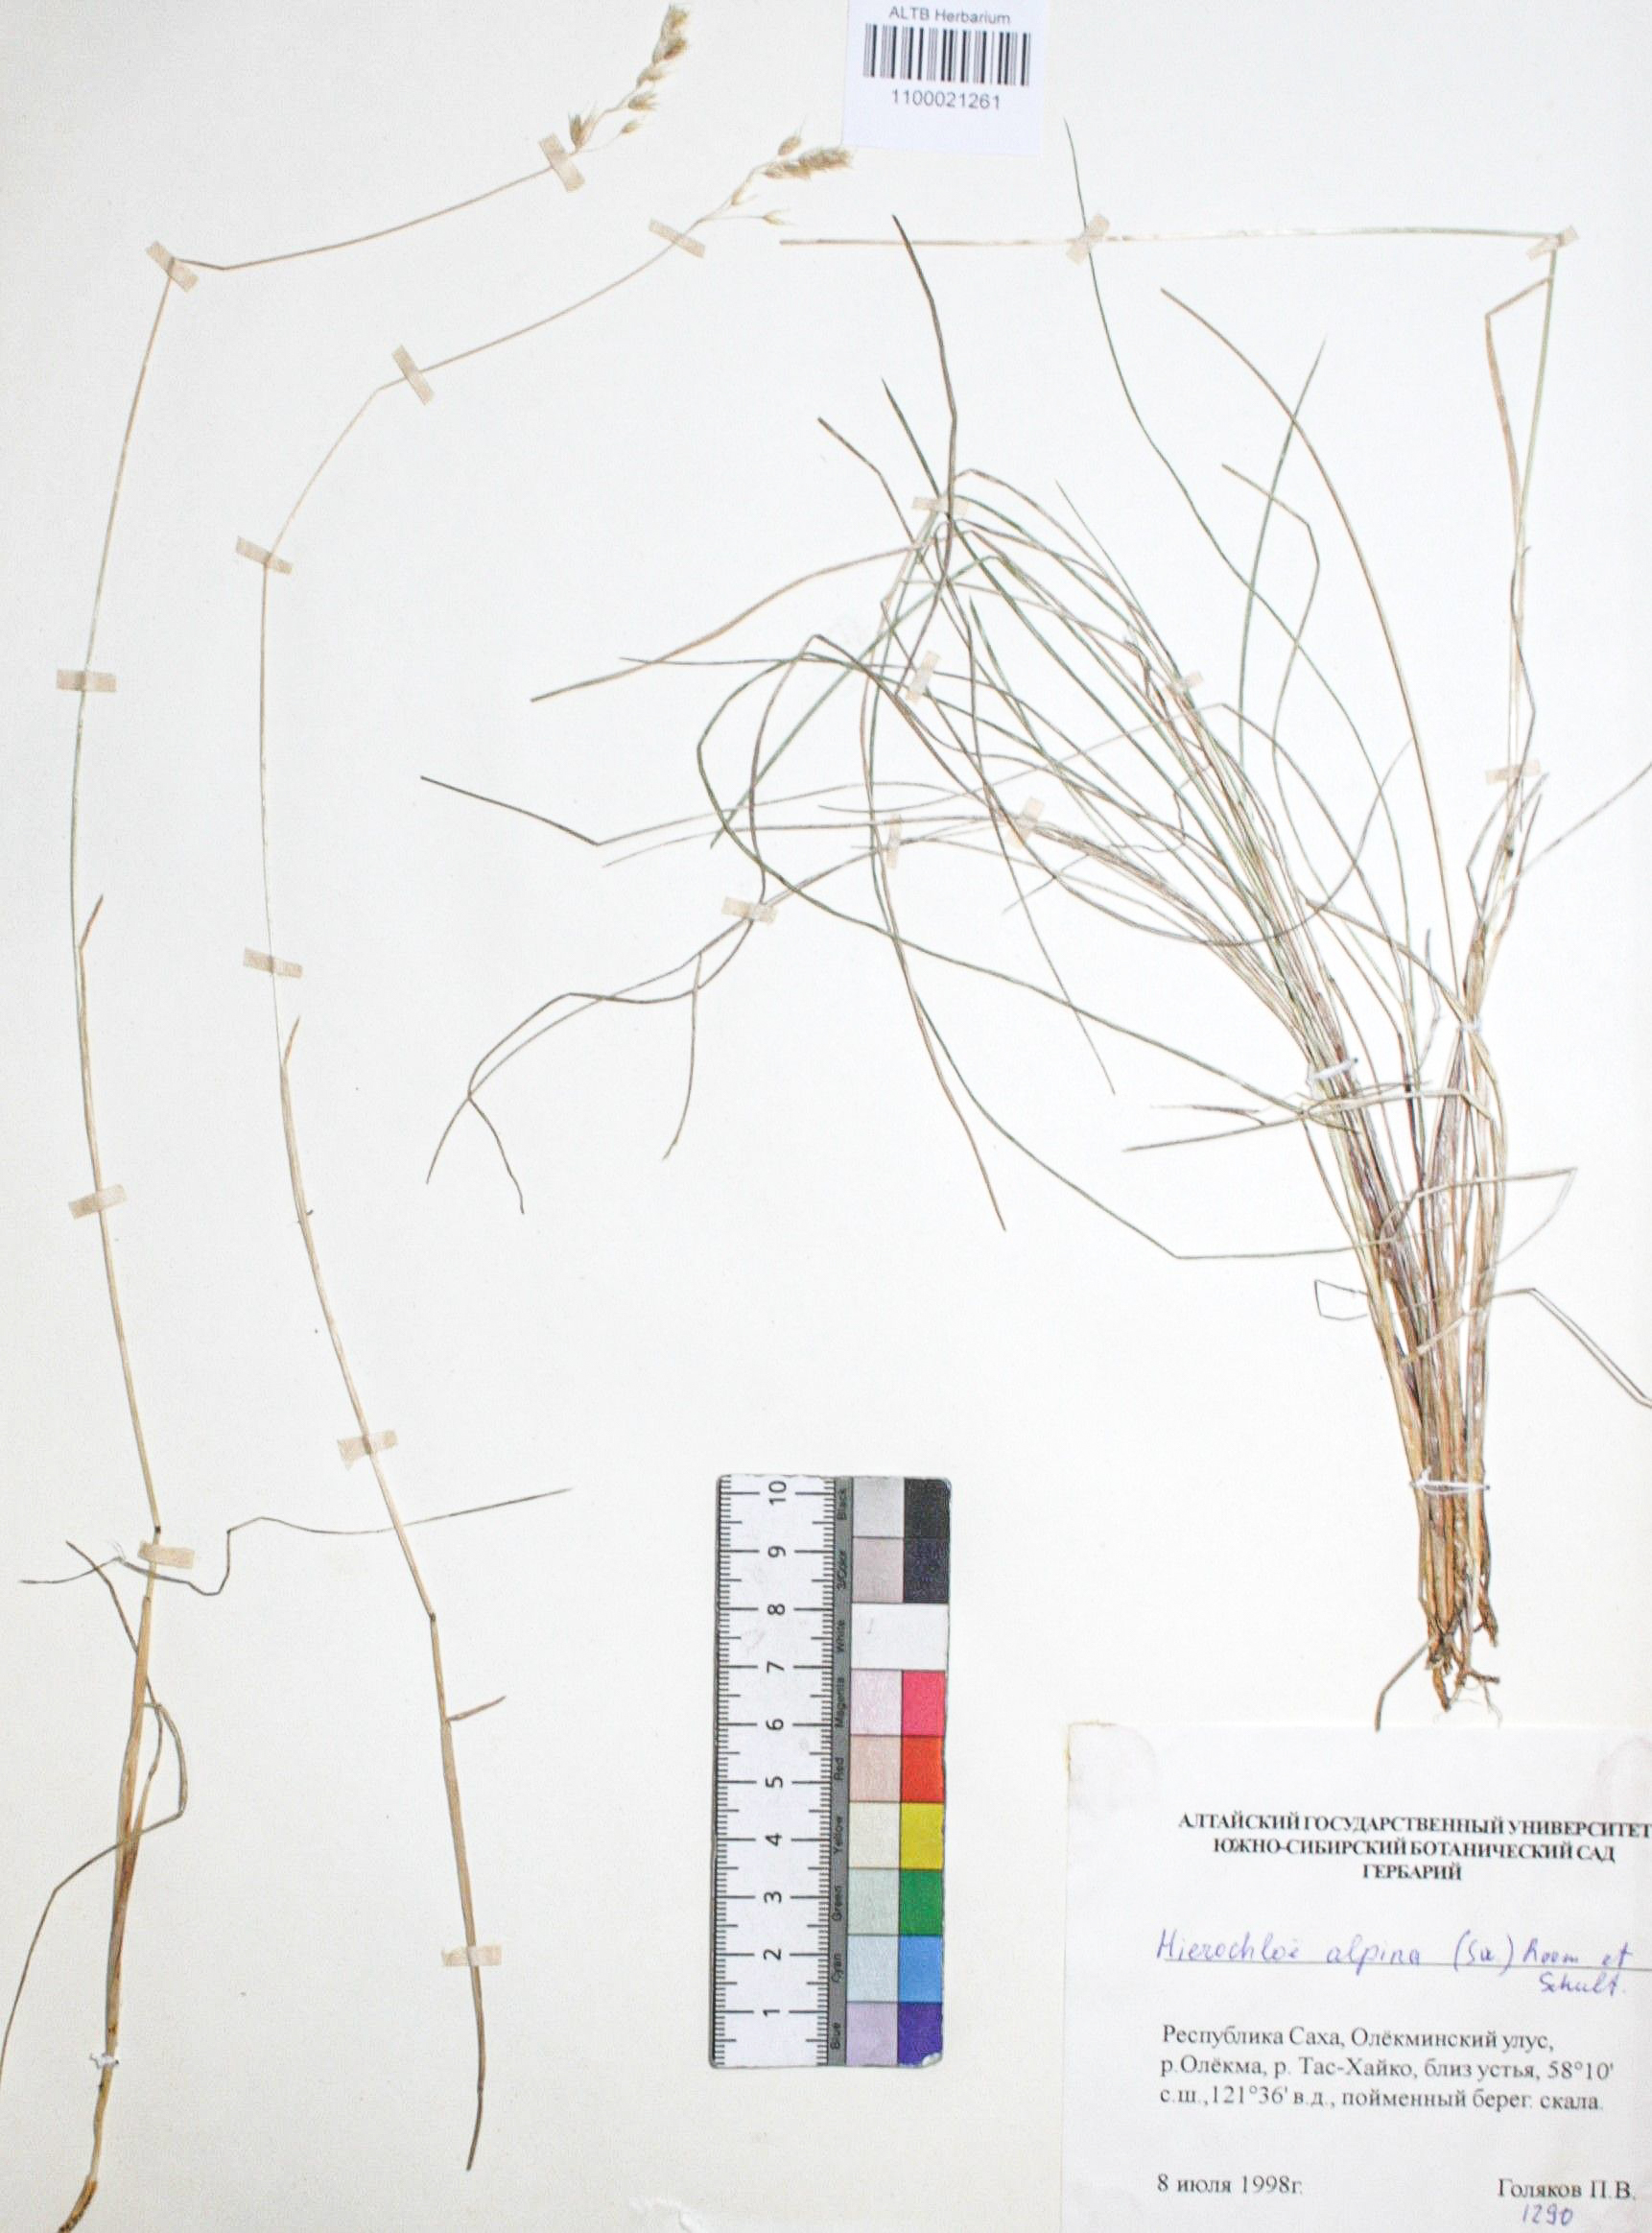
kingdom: Plantae
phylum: Tracheophyta
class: Liliopsida
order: Poales
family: Poaceae
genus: Anthoxanthum
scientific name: Anthoxanthum monticola
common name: Alpine sweetgrass
